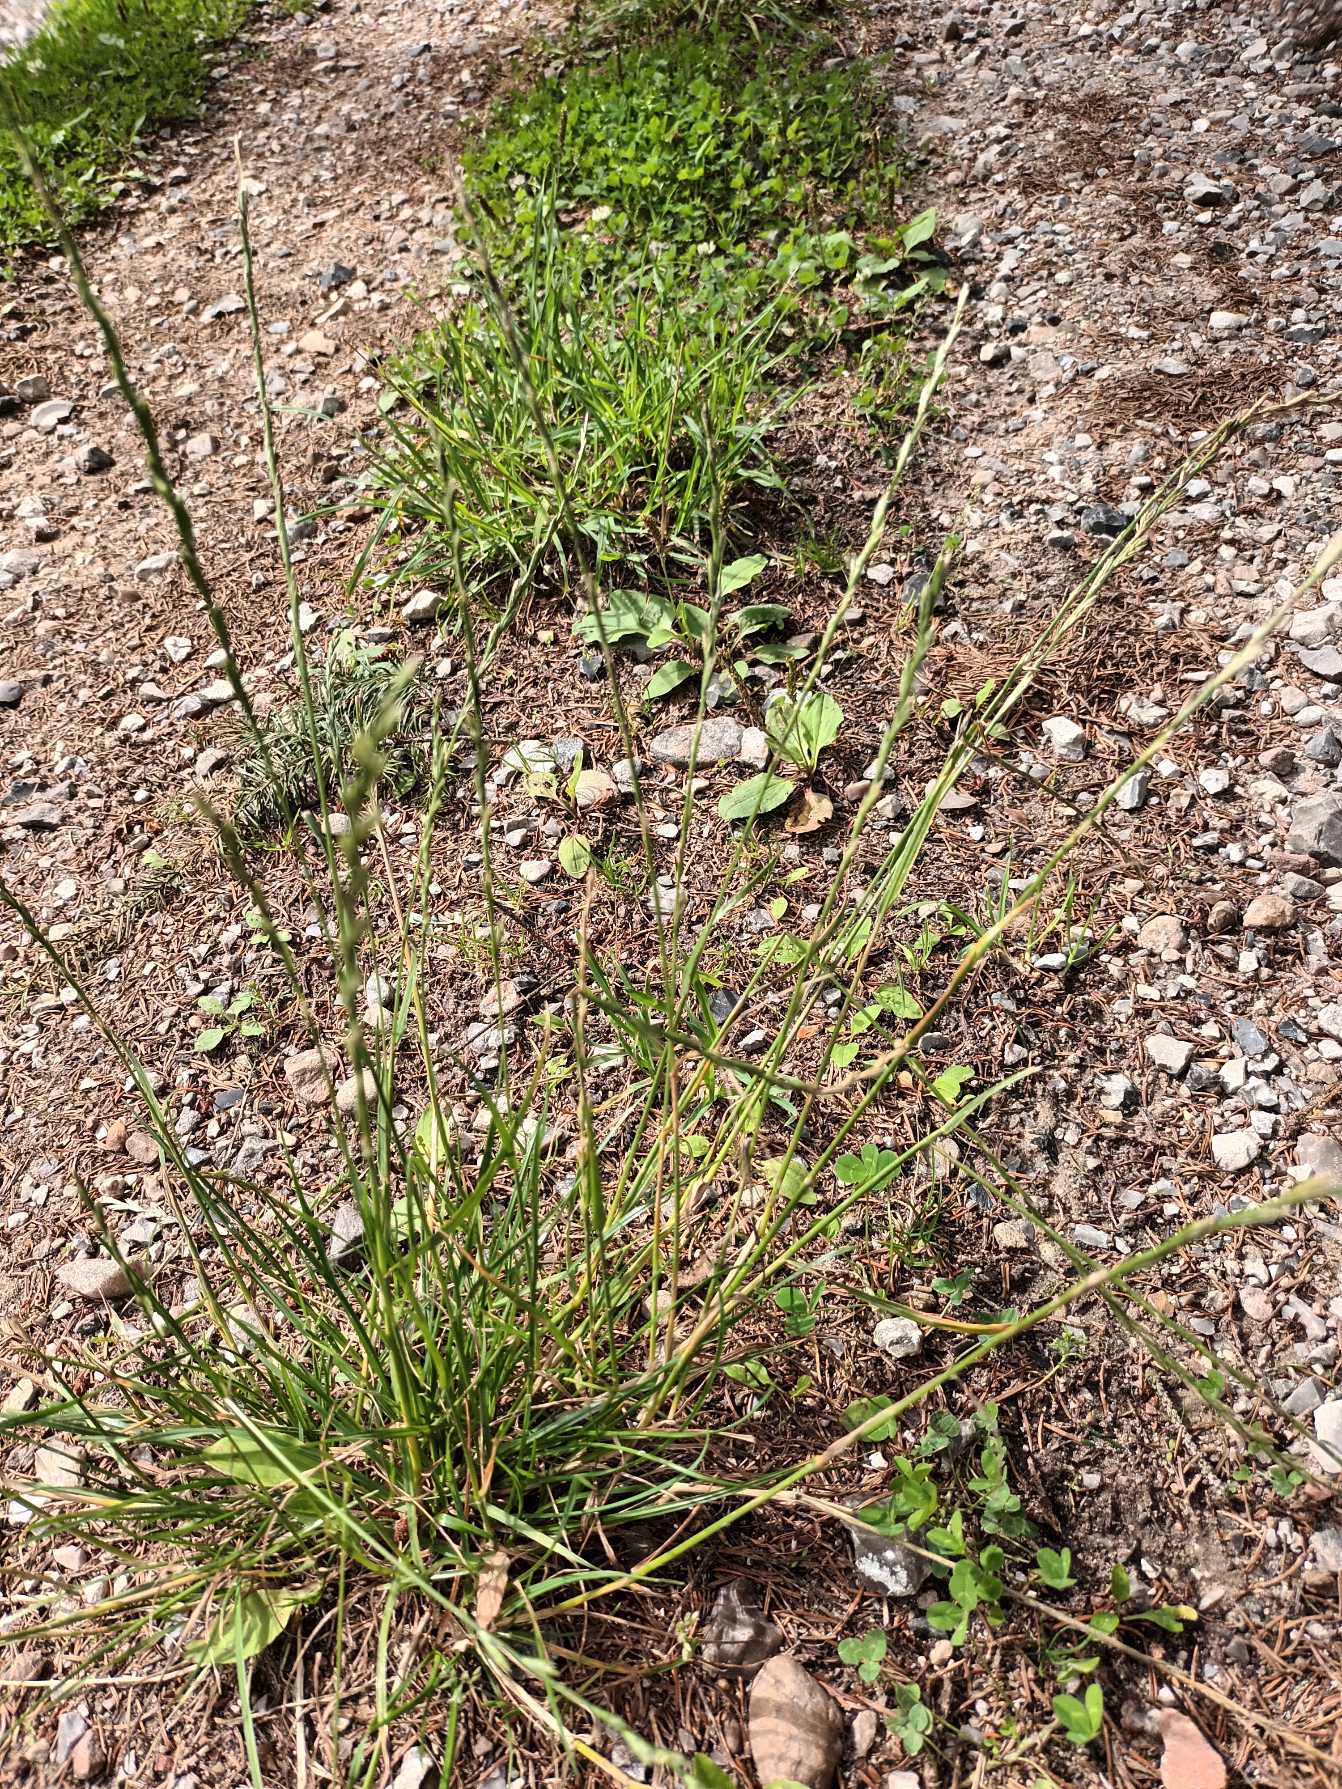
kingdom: Plantae
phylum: Tracheophyta
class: Liliopsida
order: Poales
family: Poaceae
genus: Lolium
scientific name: Lolium perenne
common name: Almindelig rajgræs
